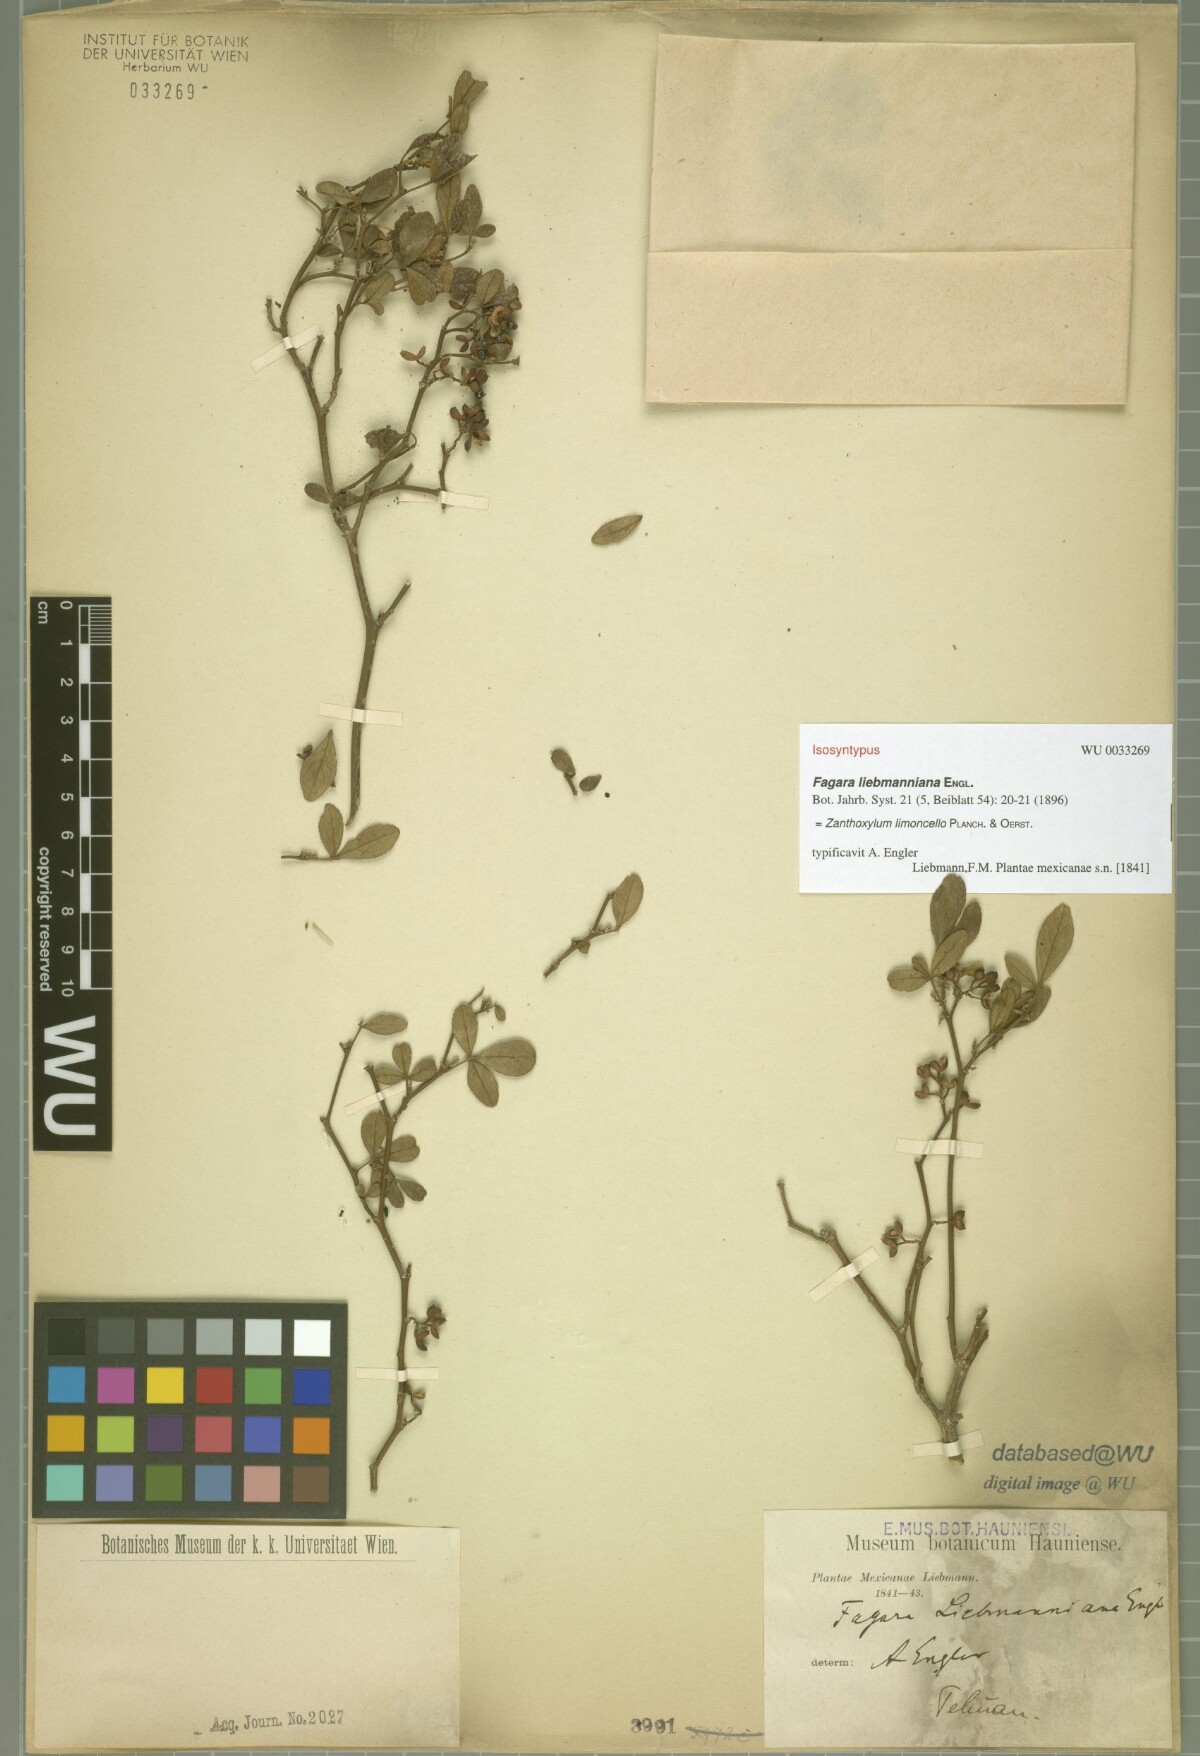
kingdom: Plantae
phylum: Tracheophyta
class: Magnoliopsida
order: Sapindales
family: Rutaceae
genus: Zanthoxylum
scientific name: Zanthoxylum limoncello
